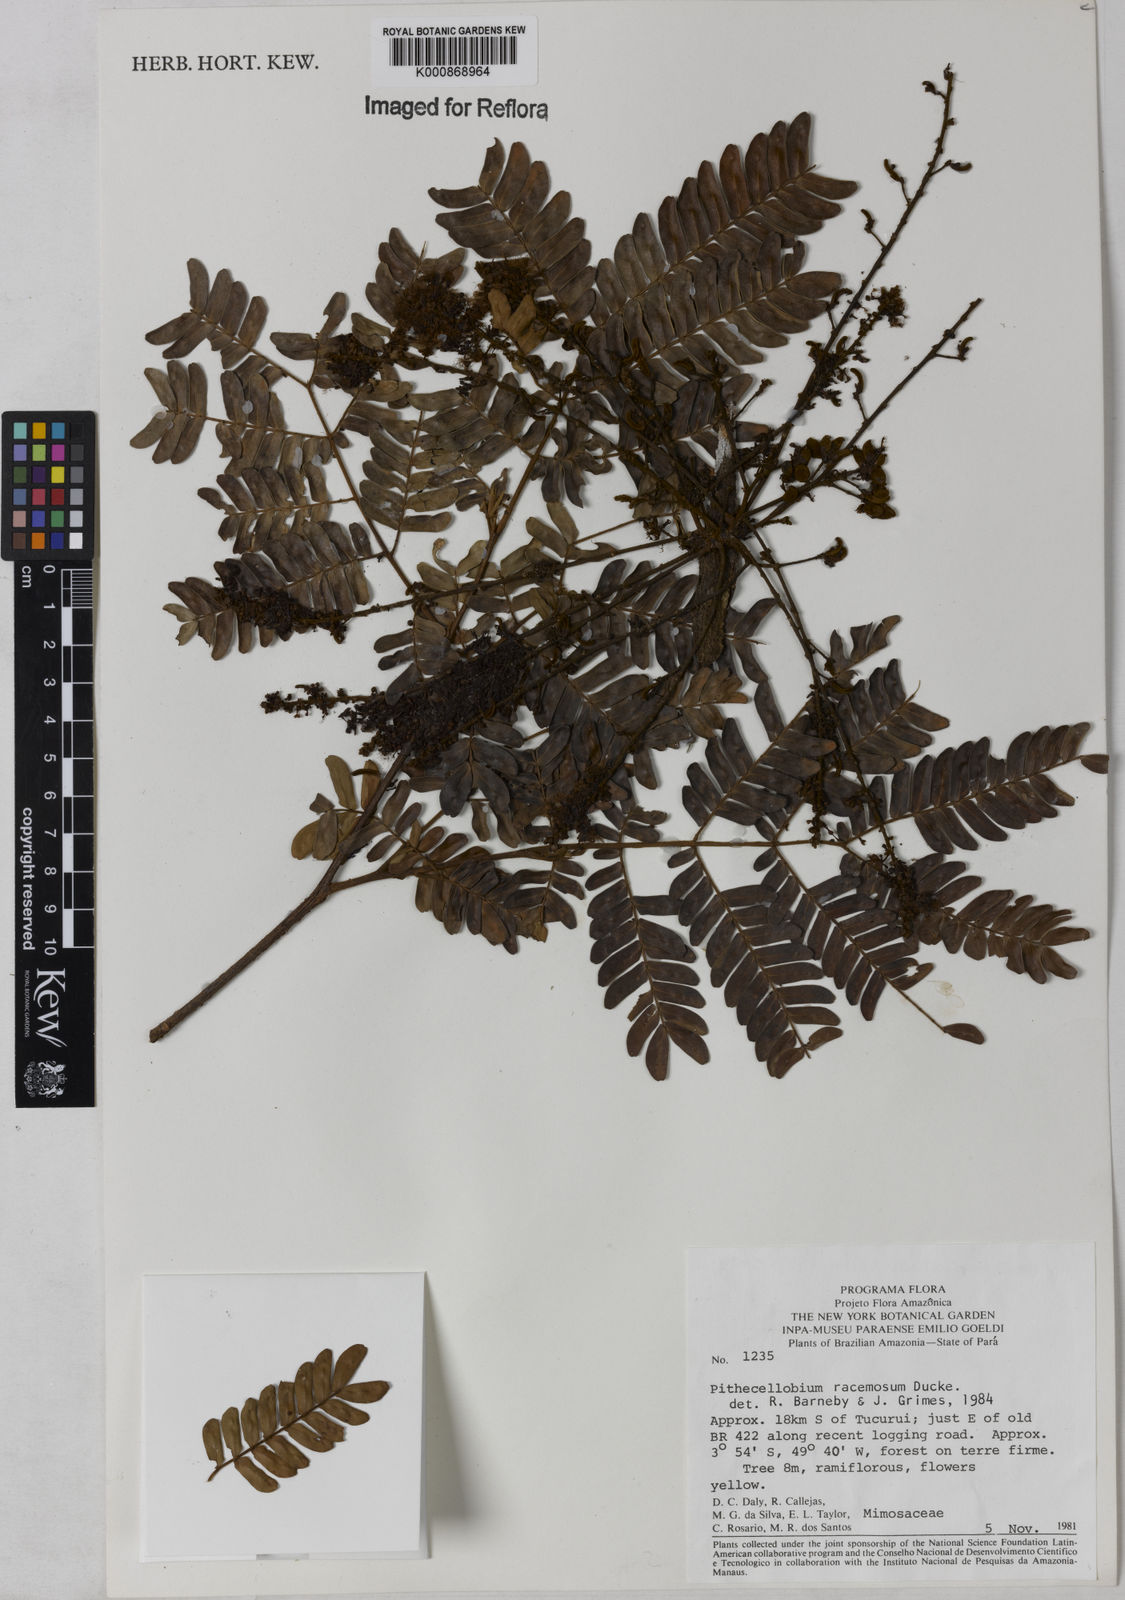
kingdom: Plantae
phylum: Tracheophyta
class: Magnoliopsida
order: Fabales
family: Fabaceae
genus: Marmaroxylon
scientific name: Marmaroxylon
